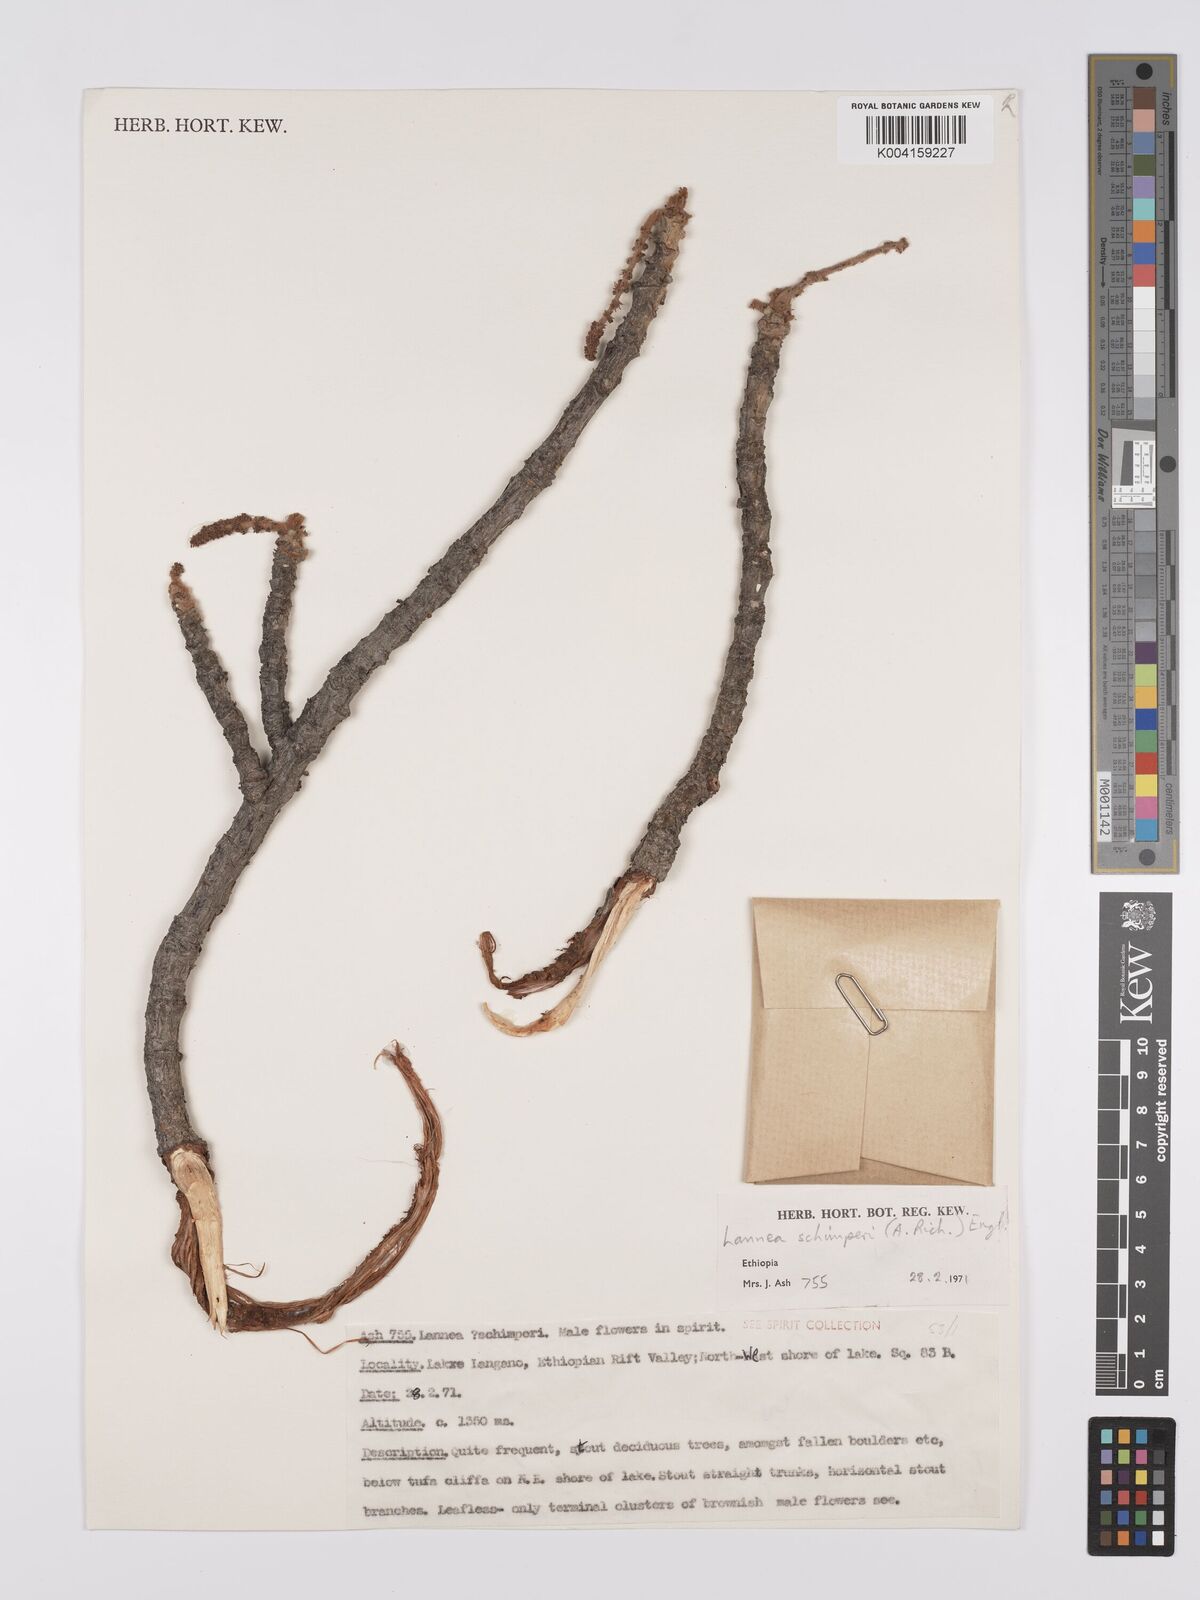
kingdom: Plantae
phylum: Tracheophyta
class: Magnoliopsida
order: Sapindales
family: Anacardiaceae
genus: Lannea
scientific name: Lannea schimperi
